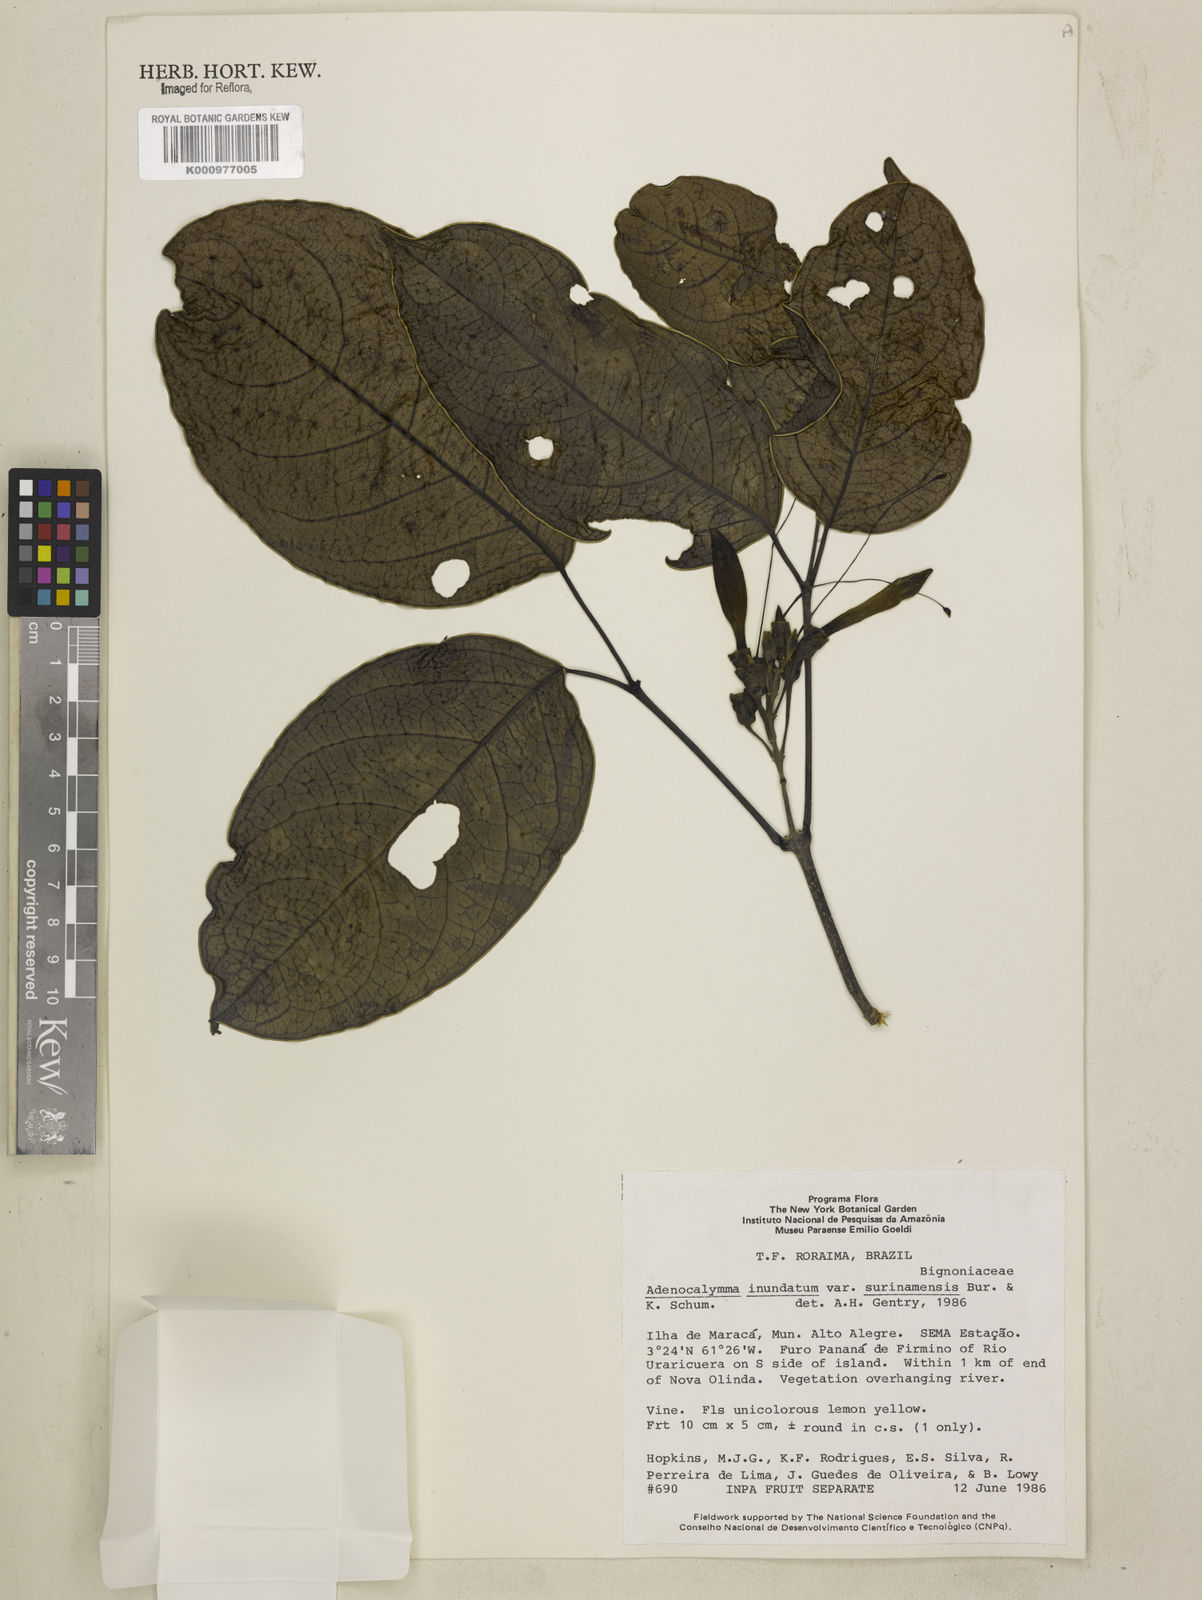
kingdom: Plantae
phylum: Tracheophyta
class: Magnoliopsida
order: Lamiales
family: Bignoniaceae
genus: Adenocalymma
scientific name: Adenocalymma inundatum
